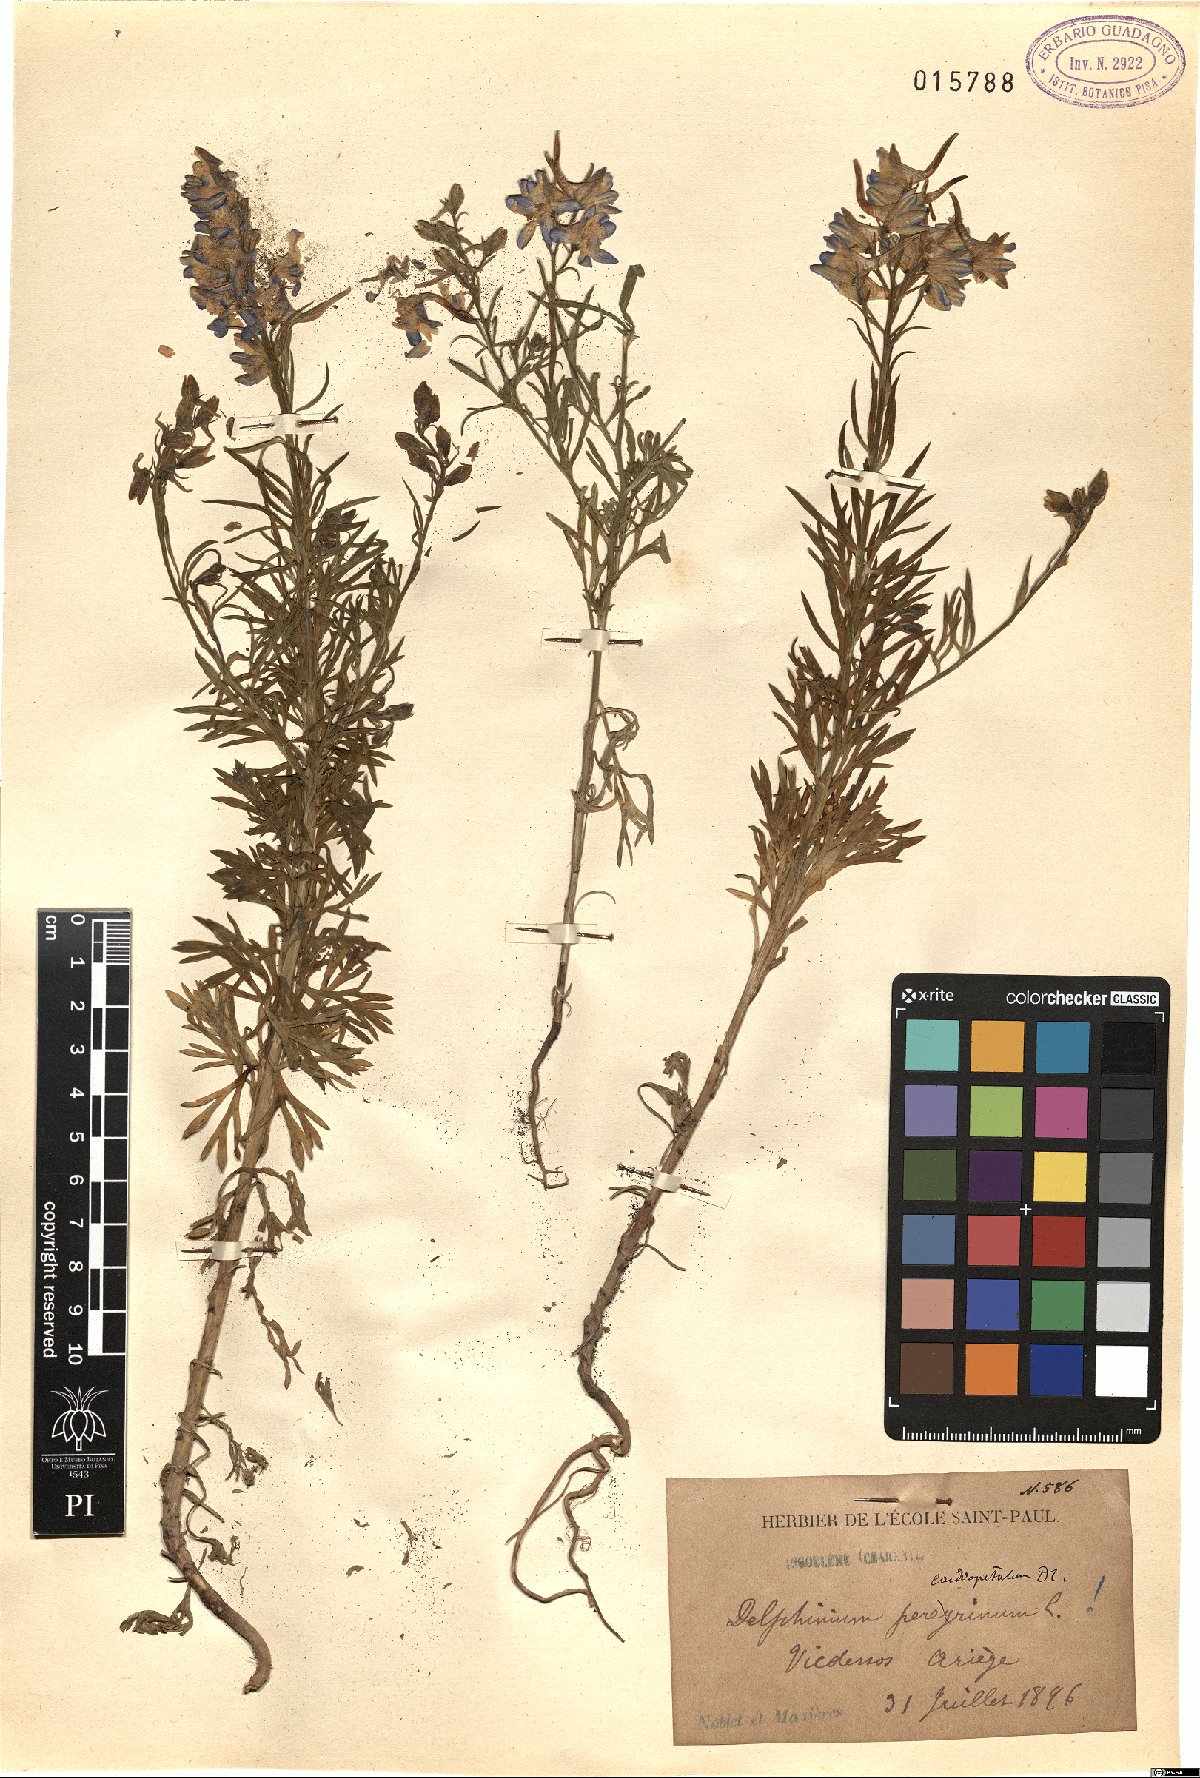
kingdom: Plantae
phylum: Tracheophyta
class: Magnoliopsida
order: Ranunculales
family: Ranunculaceae
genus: Delphinium
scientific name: Delphinium peregrinum
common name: Violet larkspur
